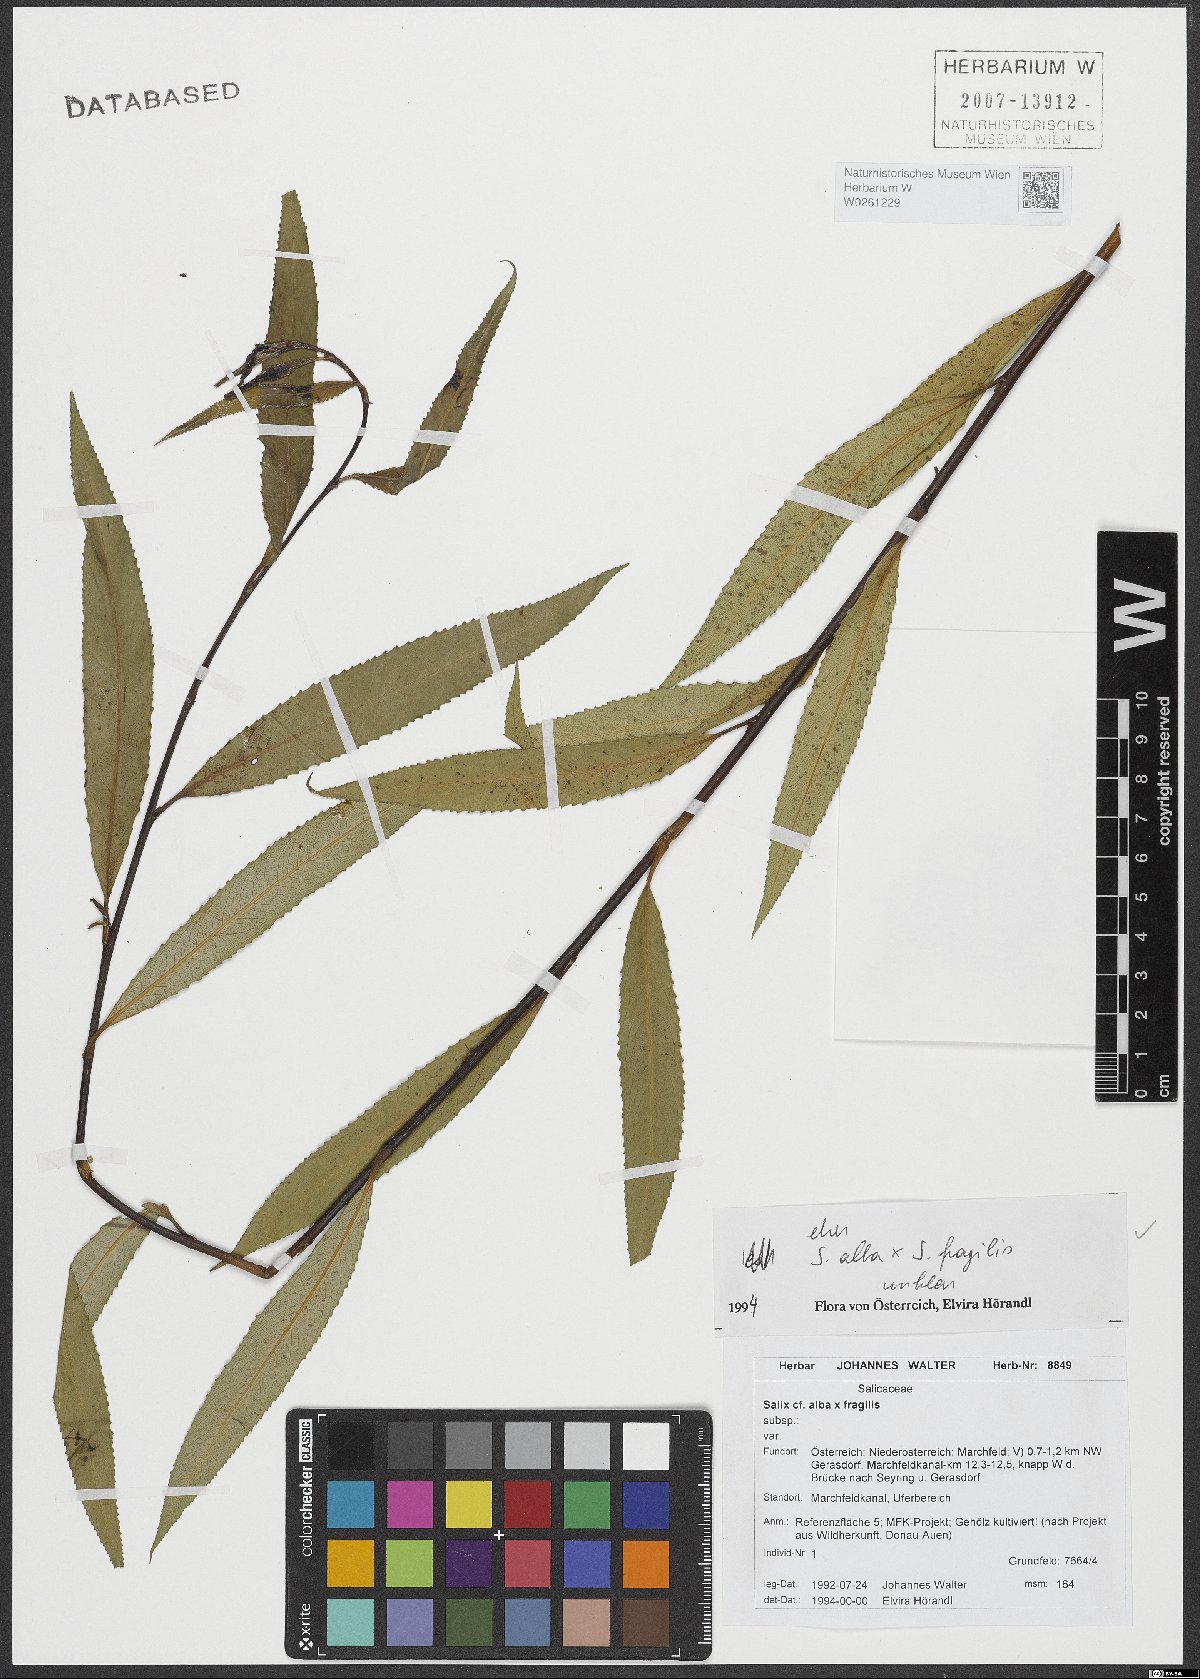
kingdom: Plantae
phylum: Tracheophyta
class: Magnoliopsida
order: Malpighiales
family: Salicaceae
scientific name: Salicaceae
